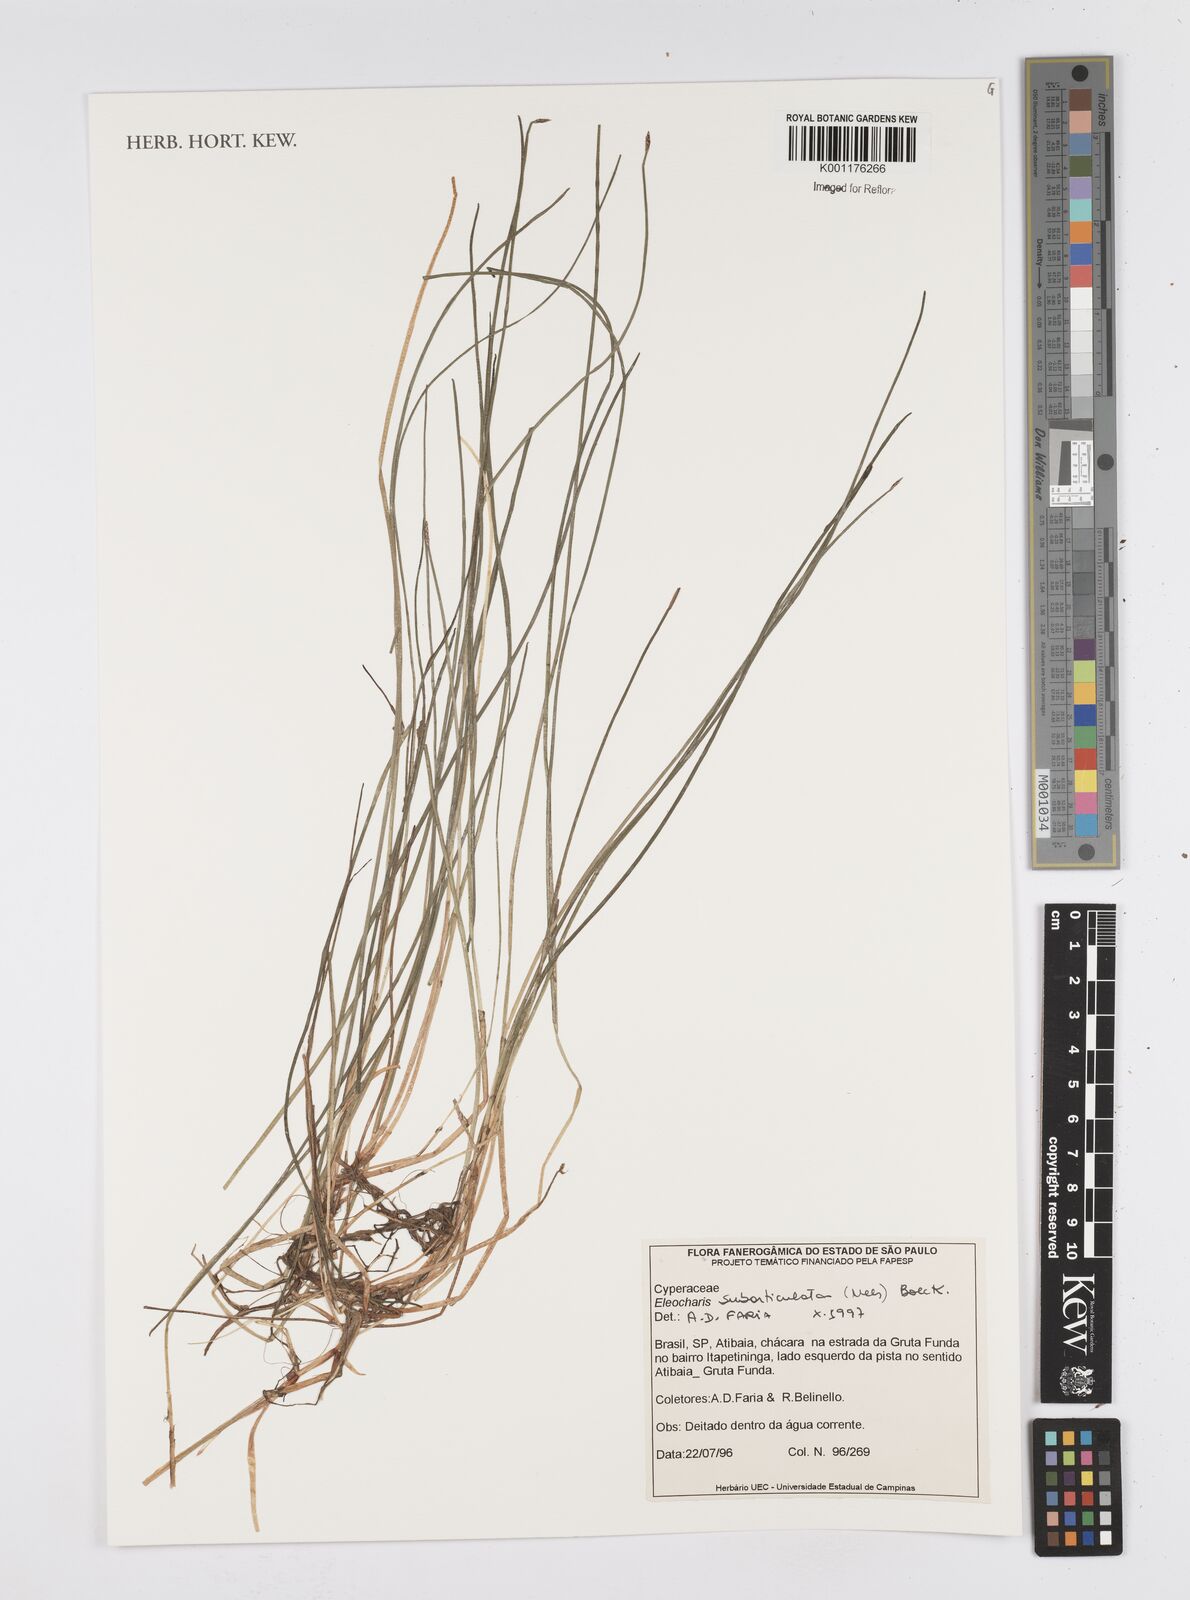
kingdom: Plantae
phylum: Tracheophyta
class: Liliopsida
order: Poales
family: Cyperaceae
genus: Eleocharis
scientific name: Eleocharis subarticulata
